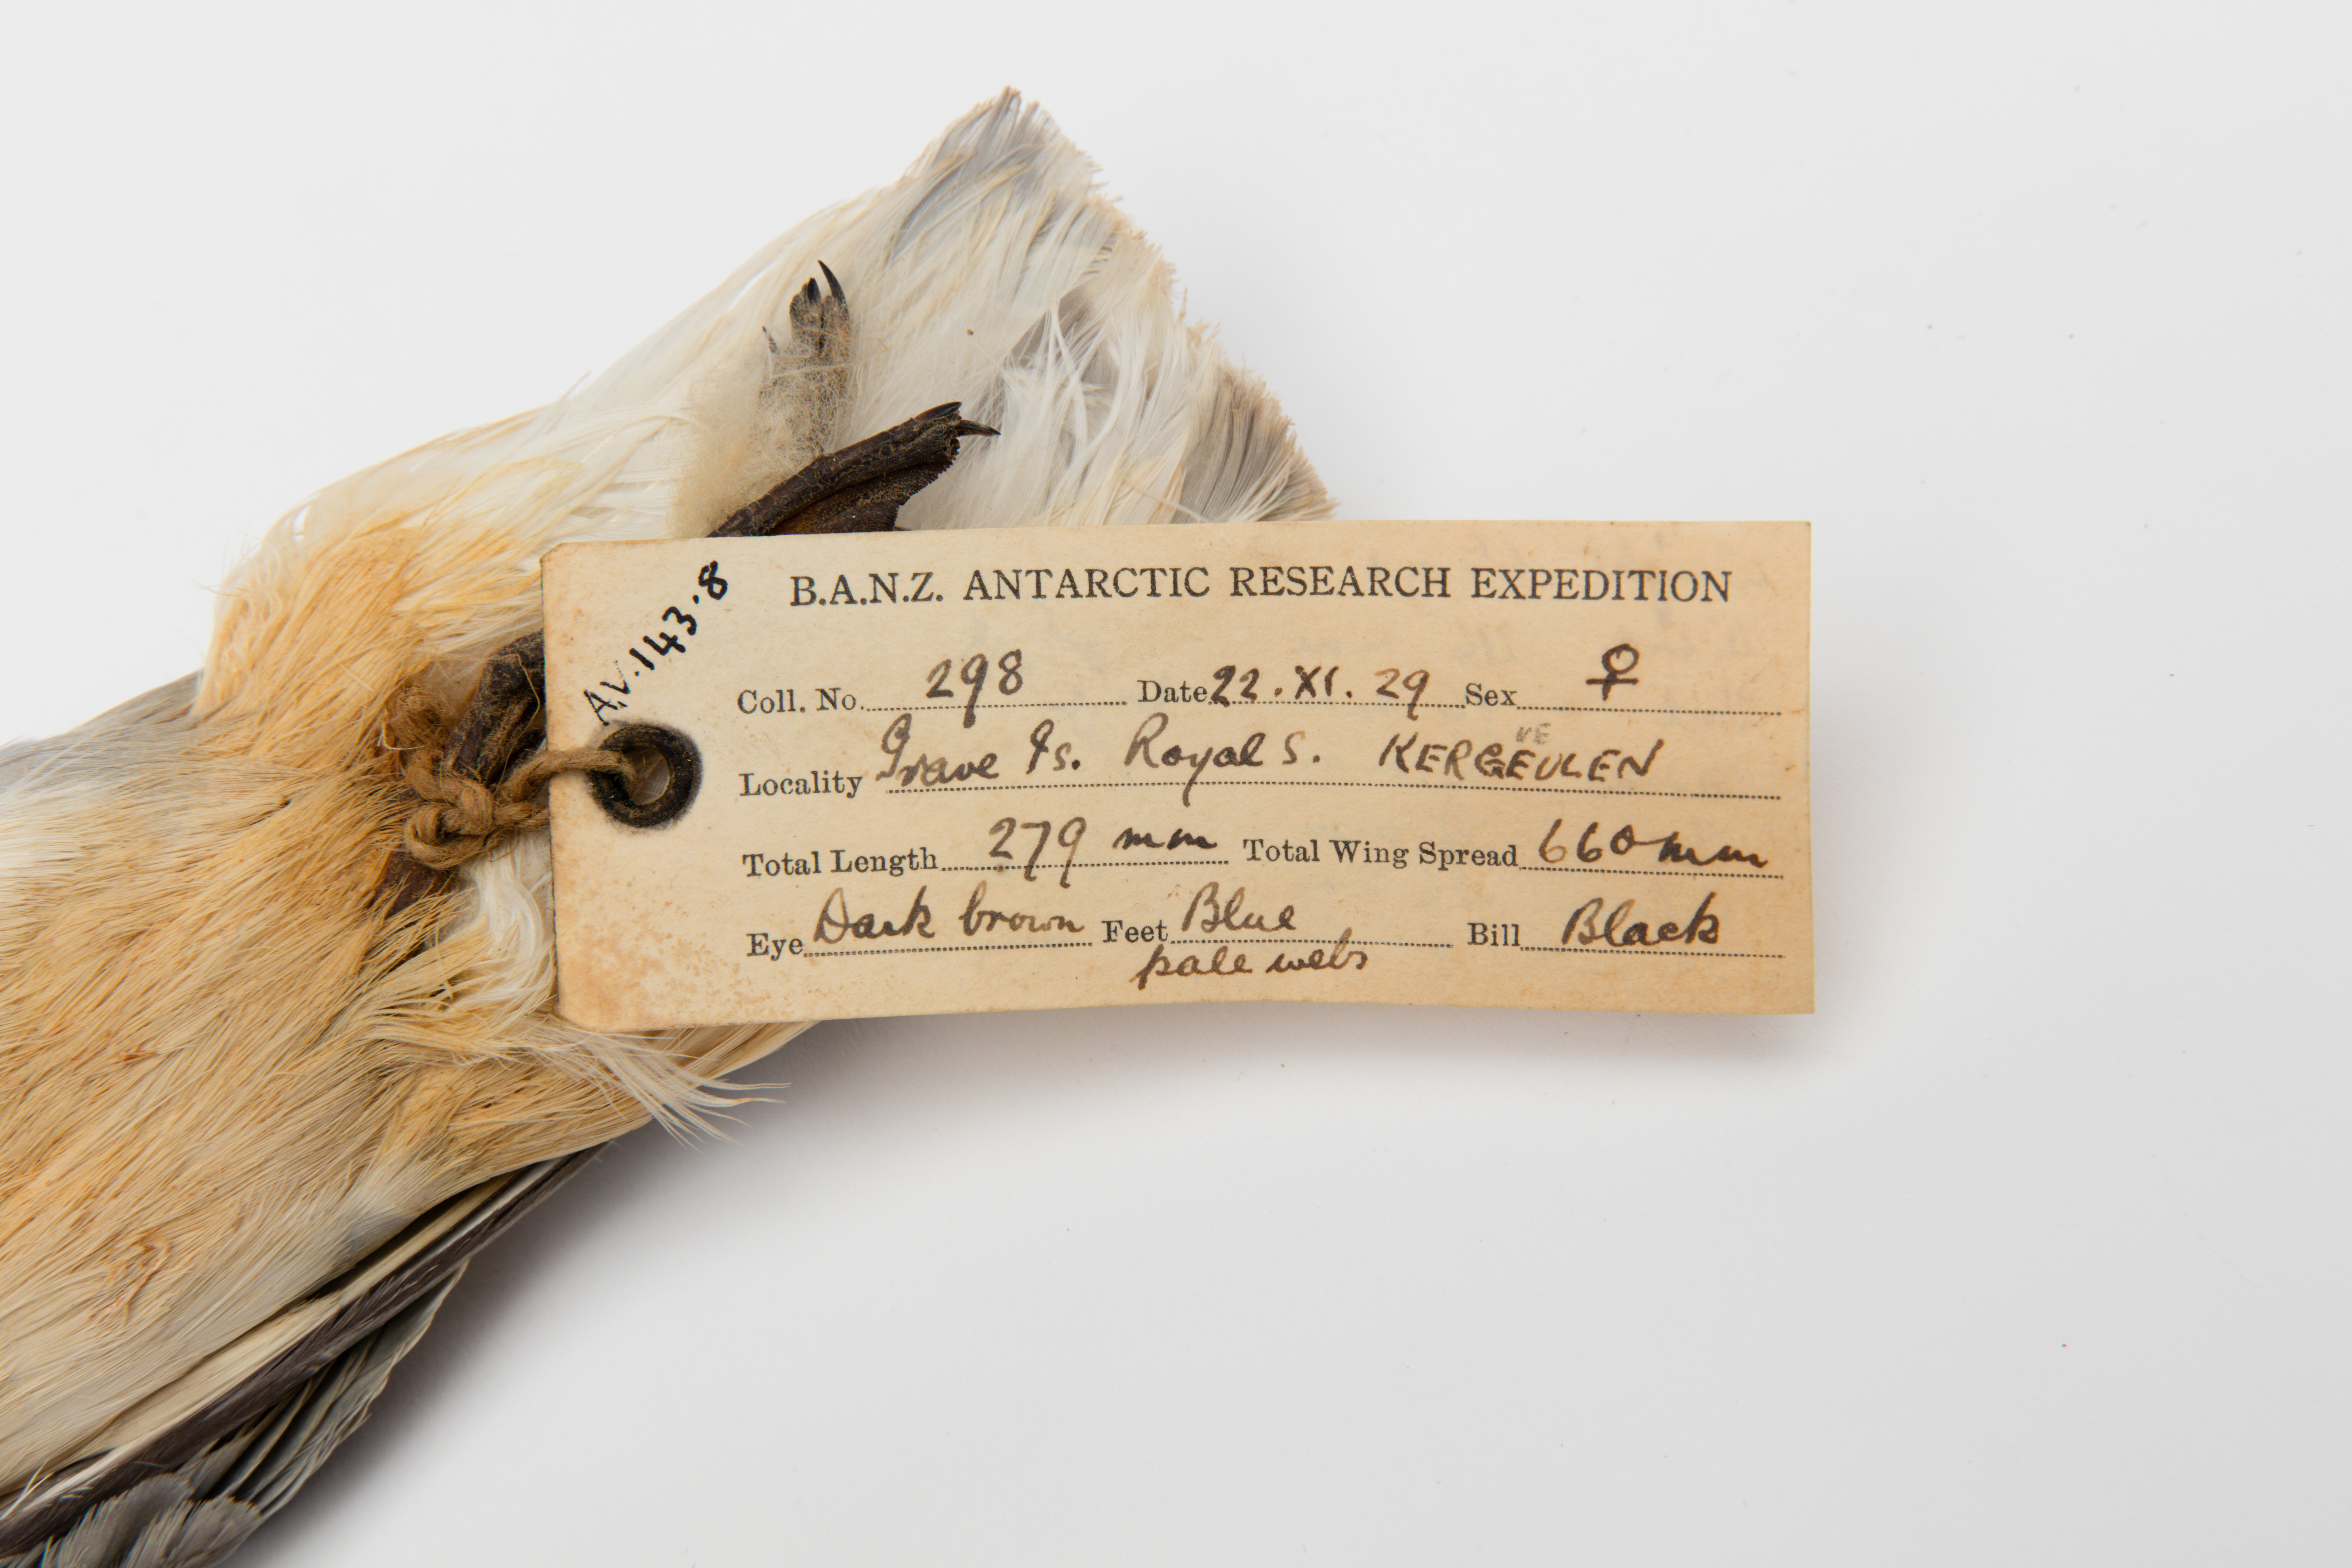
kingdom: Animalia
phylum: Chordata
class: Aves
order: Procellariiformes
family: Procellariidae
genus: Halobaena
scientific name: Halobaena caerulea
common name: Blue petrel
